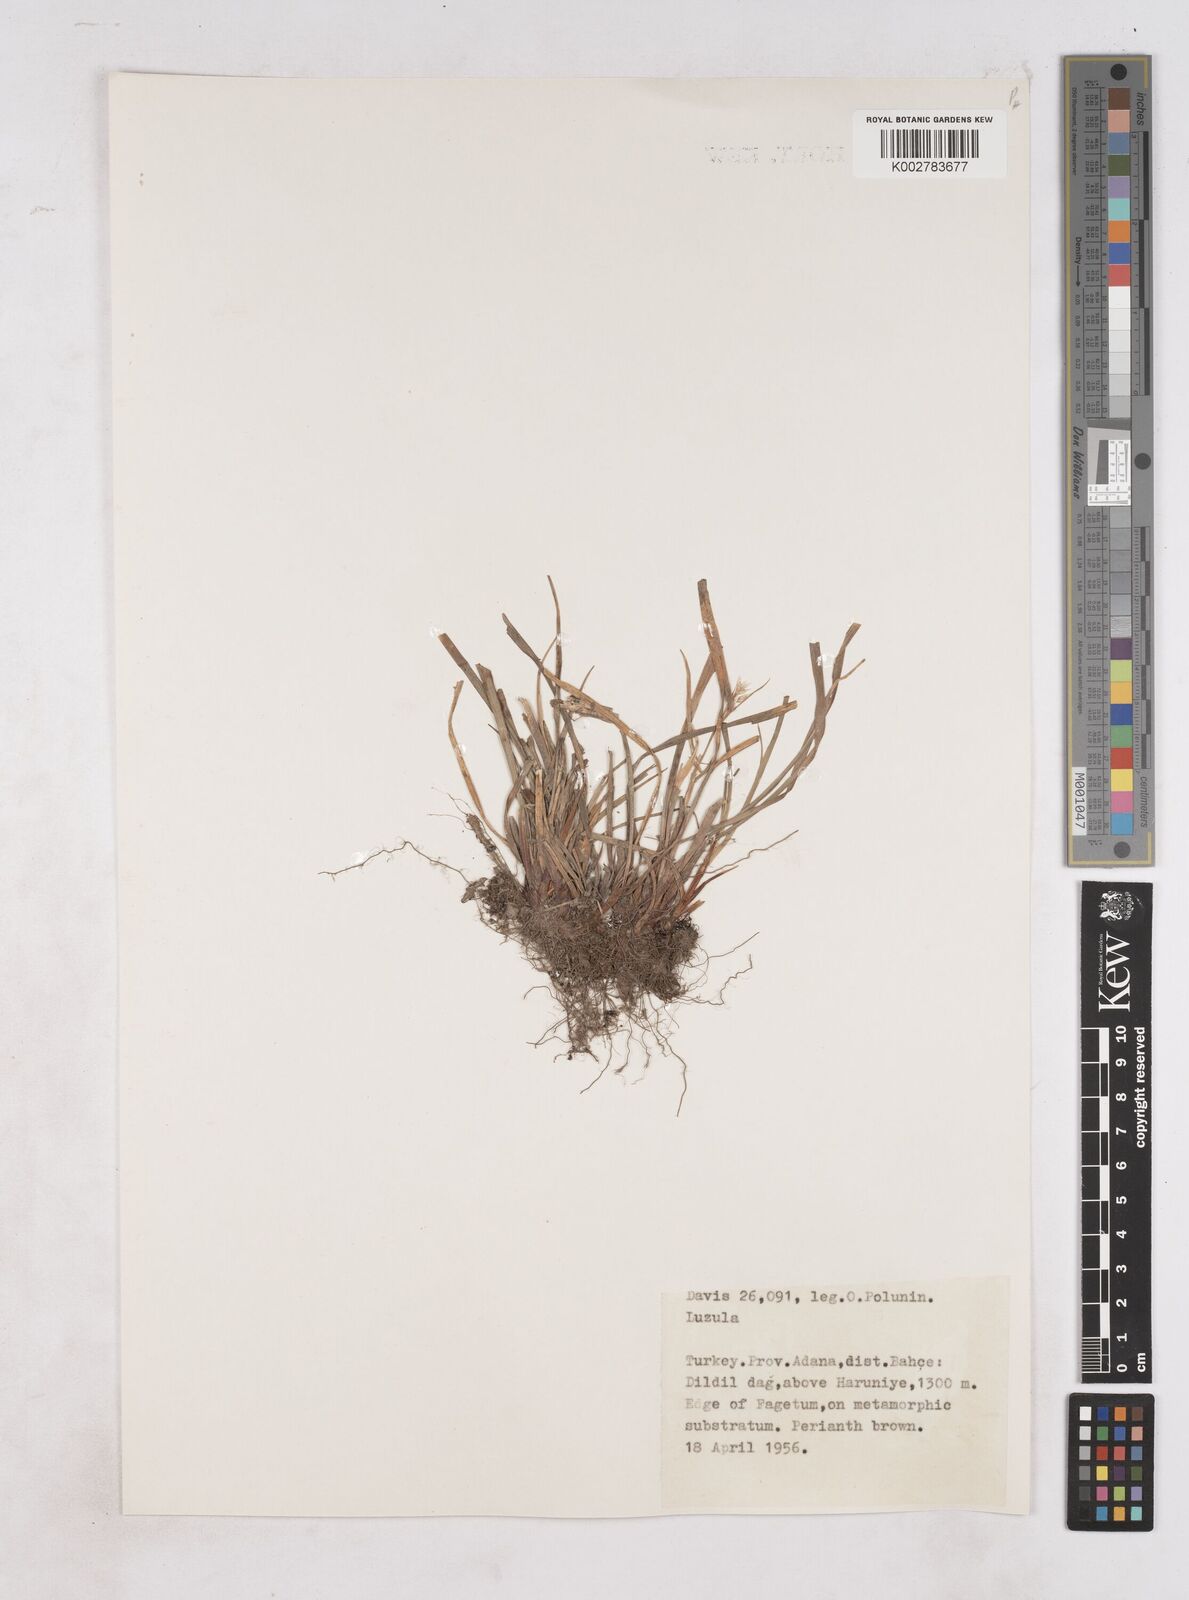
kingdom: Plantae
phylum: Tracheophyta
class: Liliopsida
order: Poales
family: Juncaceae
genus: Luzula
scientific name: Luzula
